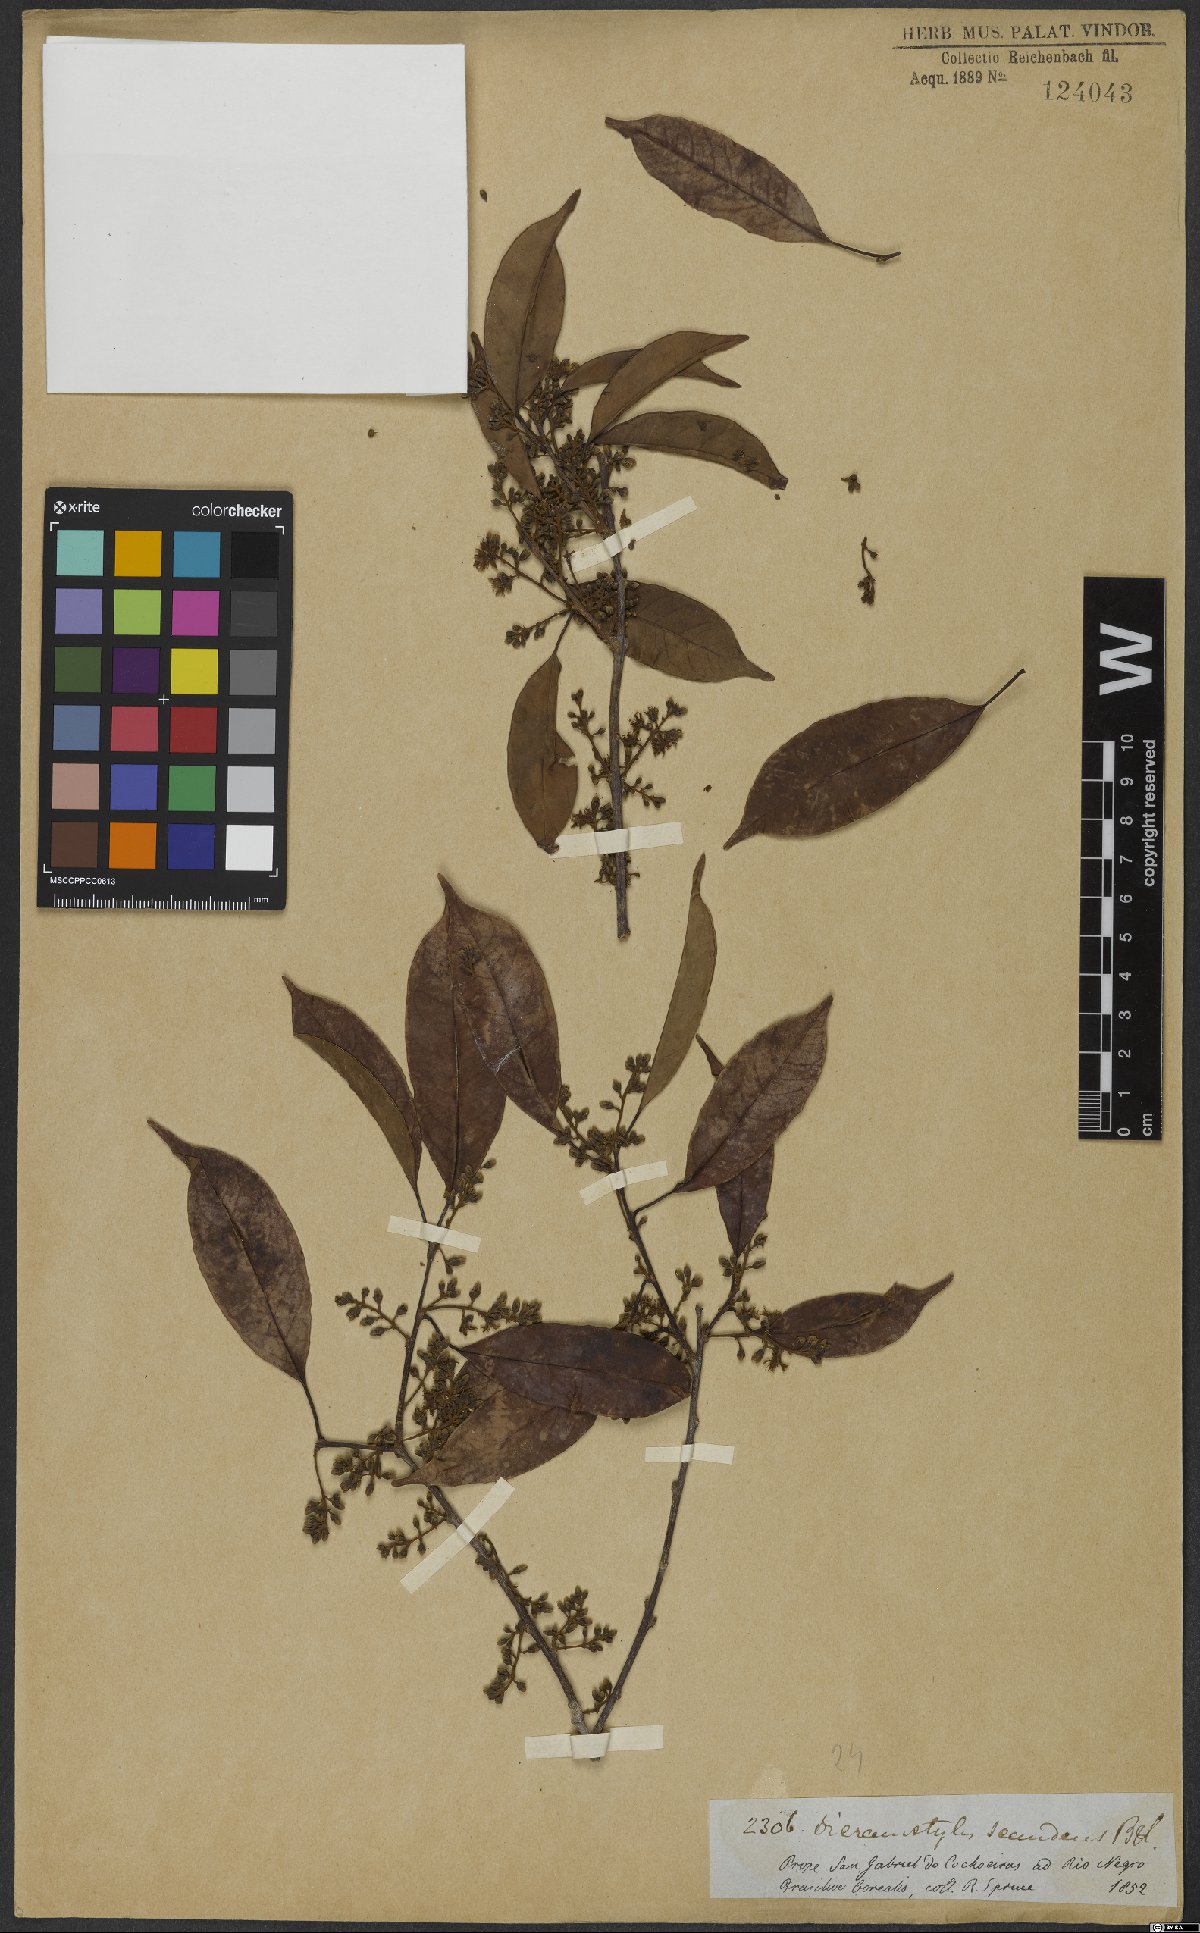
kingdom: Plantae
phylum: Tracheophyta
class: Magnoliopsida
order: Solanales
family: Convolvulaceae
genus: Dicranostyles
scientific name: Dicranostyles scandens
